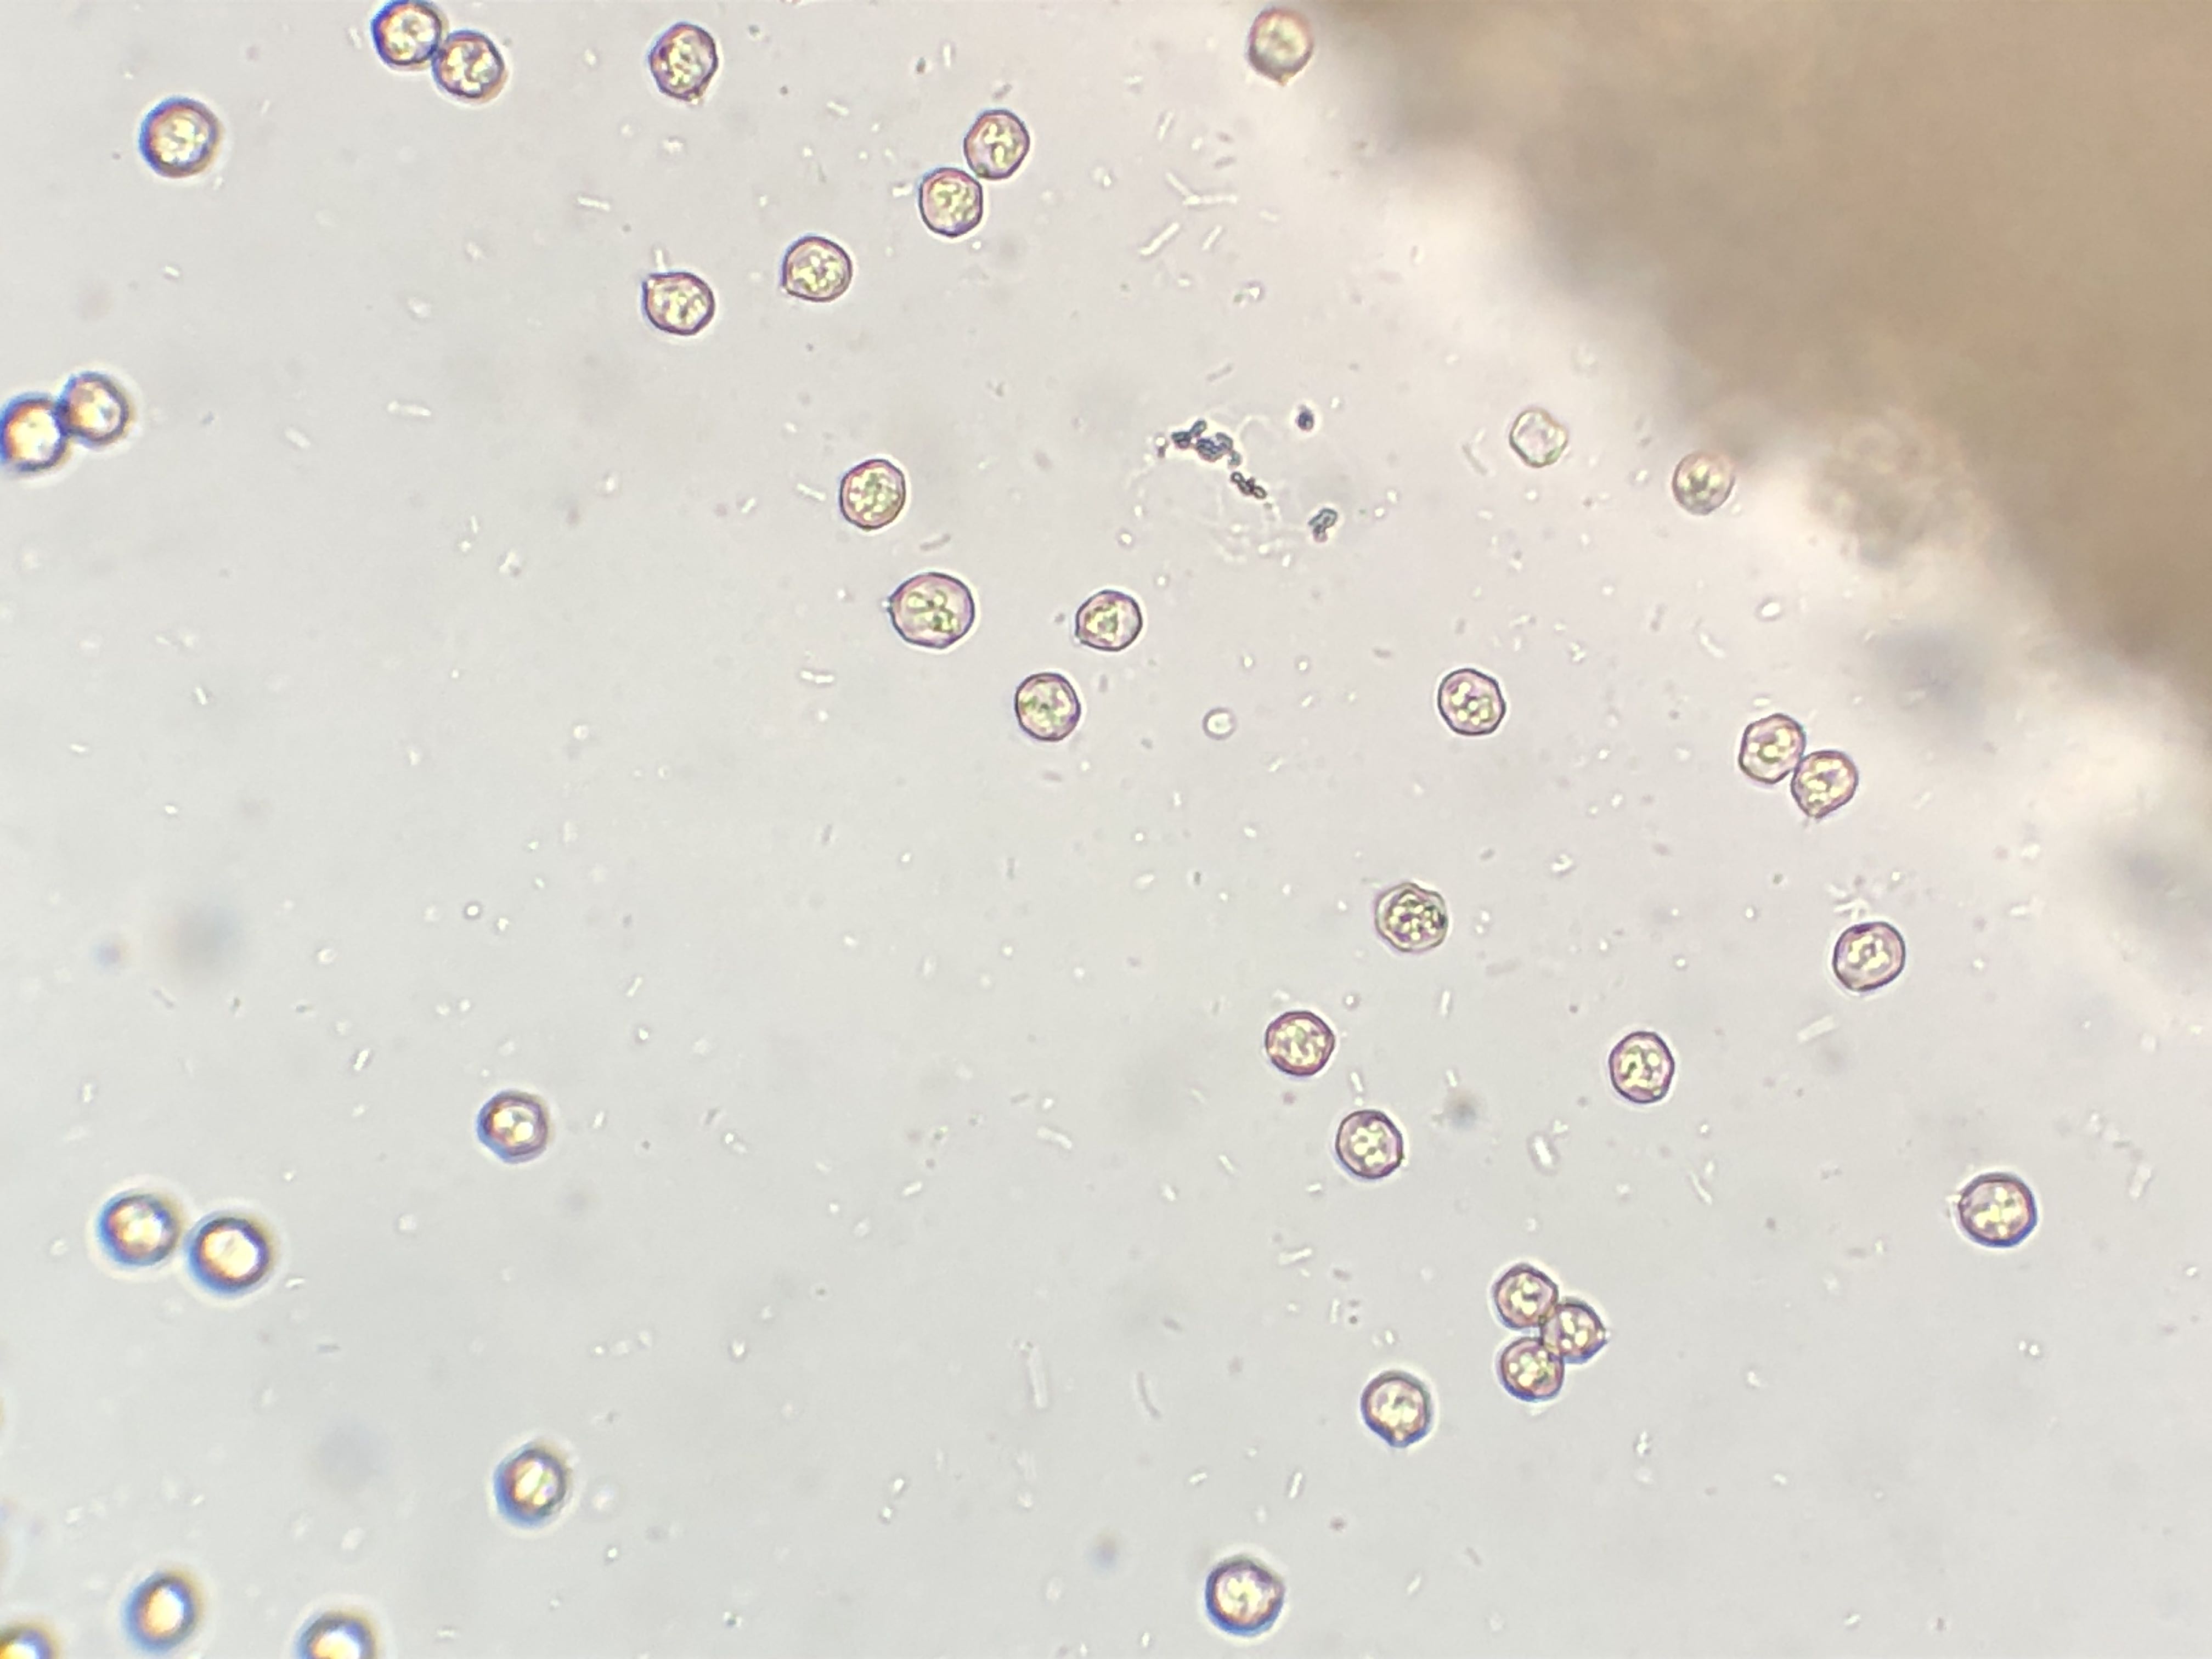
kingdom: Fungi
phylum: Basidiomycota
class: Agaricomycetes
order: Agaricales
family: Entolomataceae
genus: Entoloma
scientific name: Entoloma sericeum
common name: silkeglinsende rødblad
